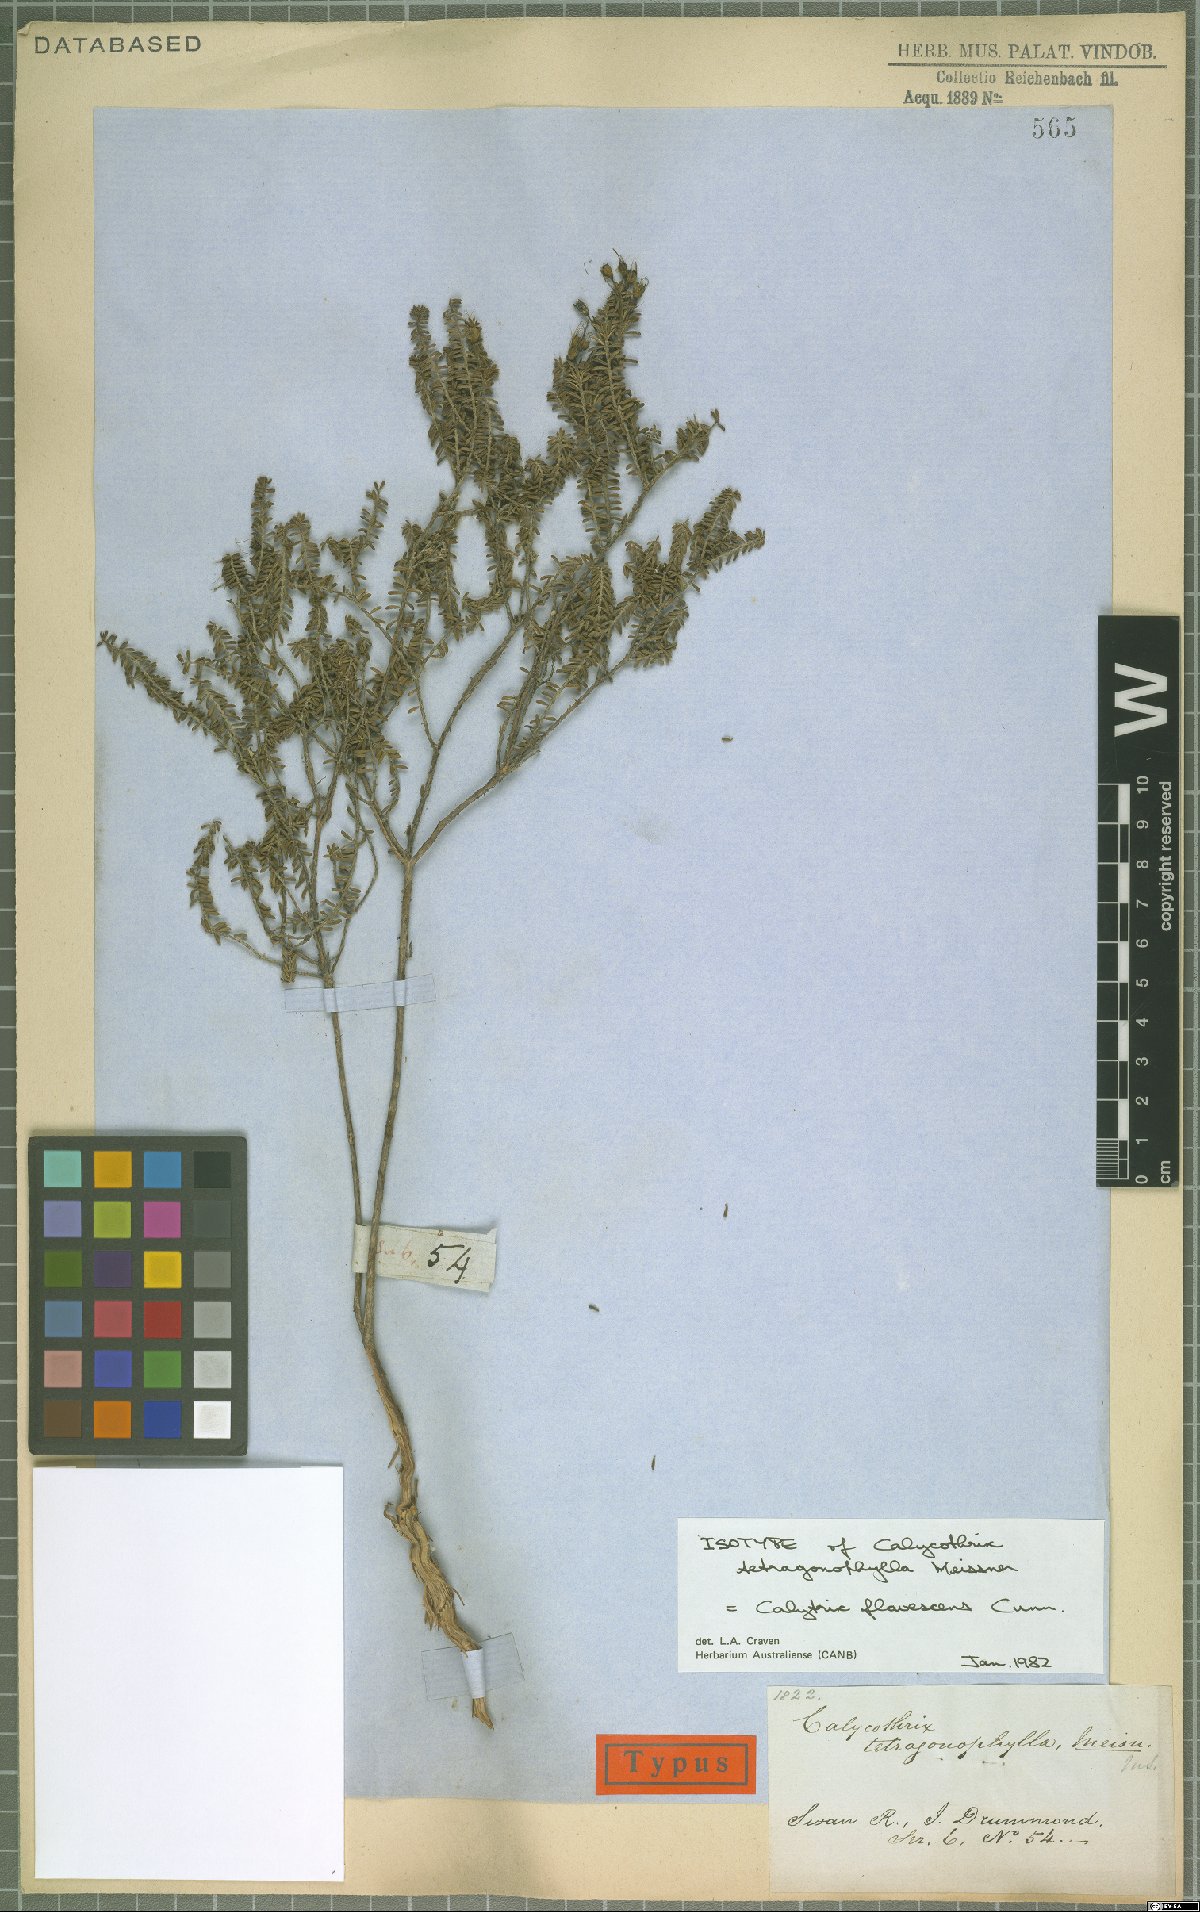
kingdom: Plantae
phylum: Tracheophyta
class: Magnoliopsida
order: Myrtales
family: Myrtaceae
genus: Calytrix
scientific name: Calytrix flavescens
